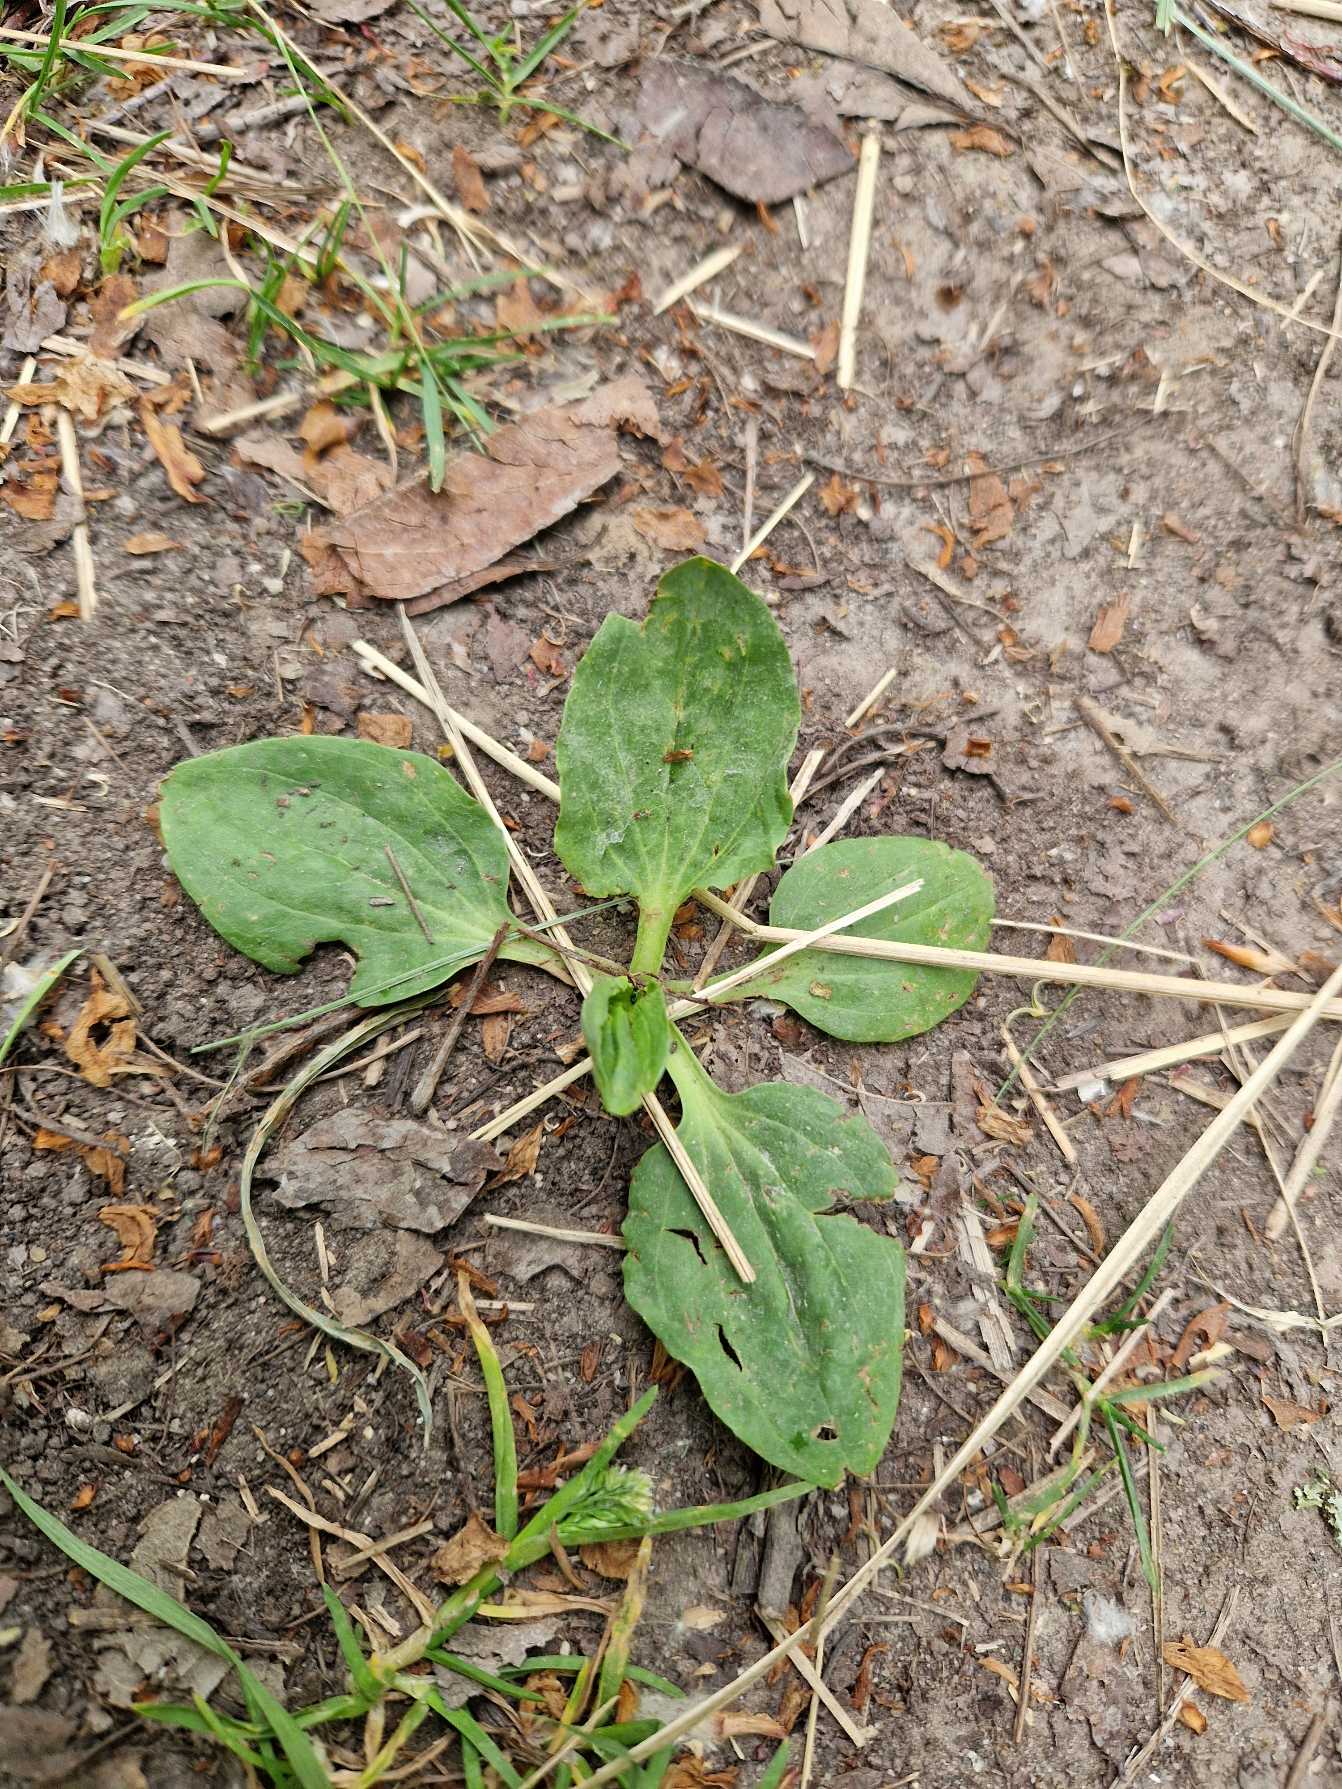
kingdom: Plantae
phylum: Tracheophyta
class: Magnoliopsida
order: Lamiales
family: Plantaginaceae
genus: Plantago
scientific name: Plantago major
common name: Glat vejbred
